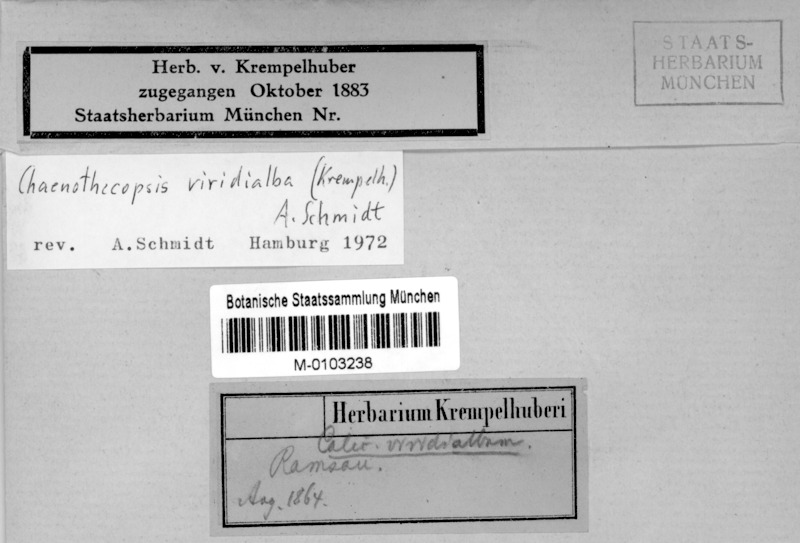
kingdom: Fungi
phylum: Ascomycota
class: Eurotiomycetes
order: Mycocaliciales
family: Mycocaliciaceae
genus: Chaenothecopsis
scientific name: Chaenothecopsis viridialba
